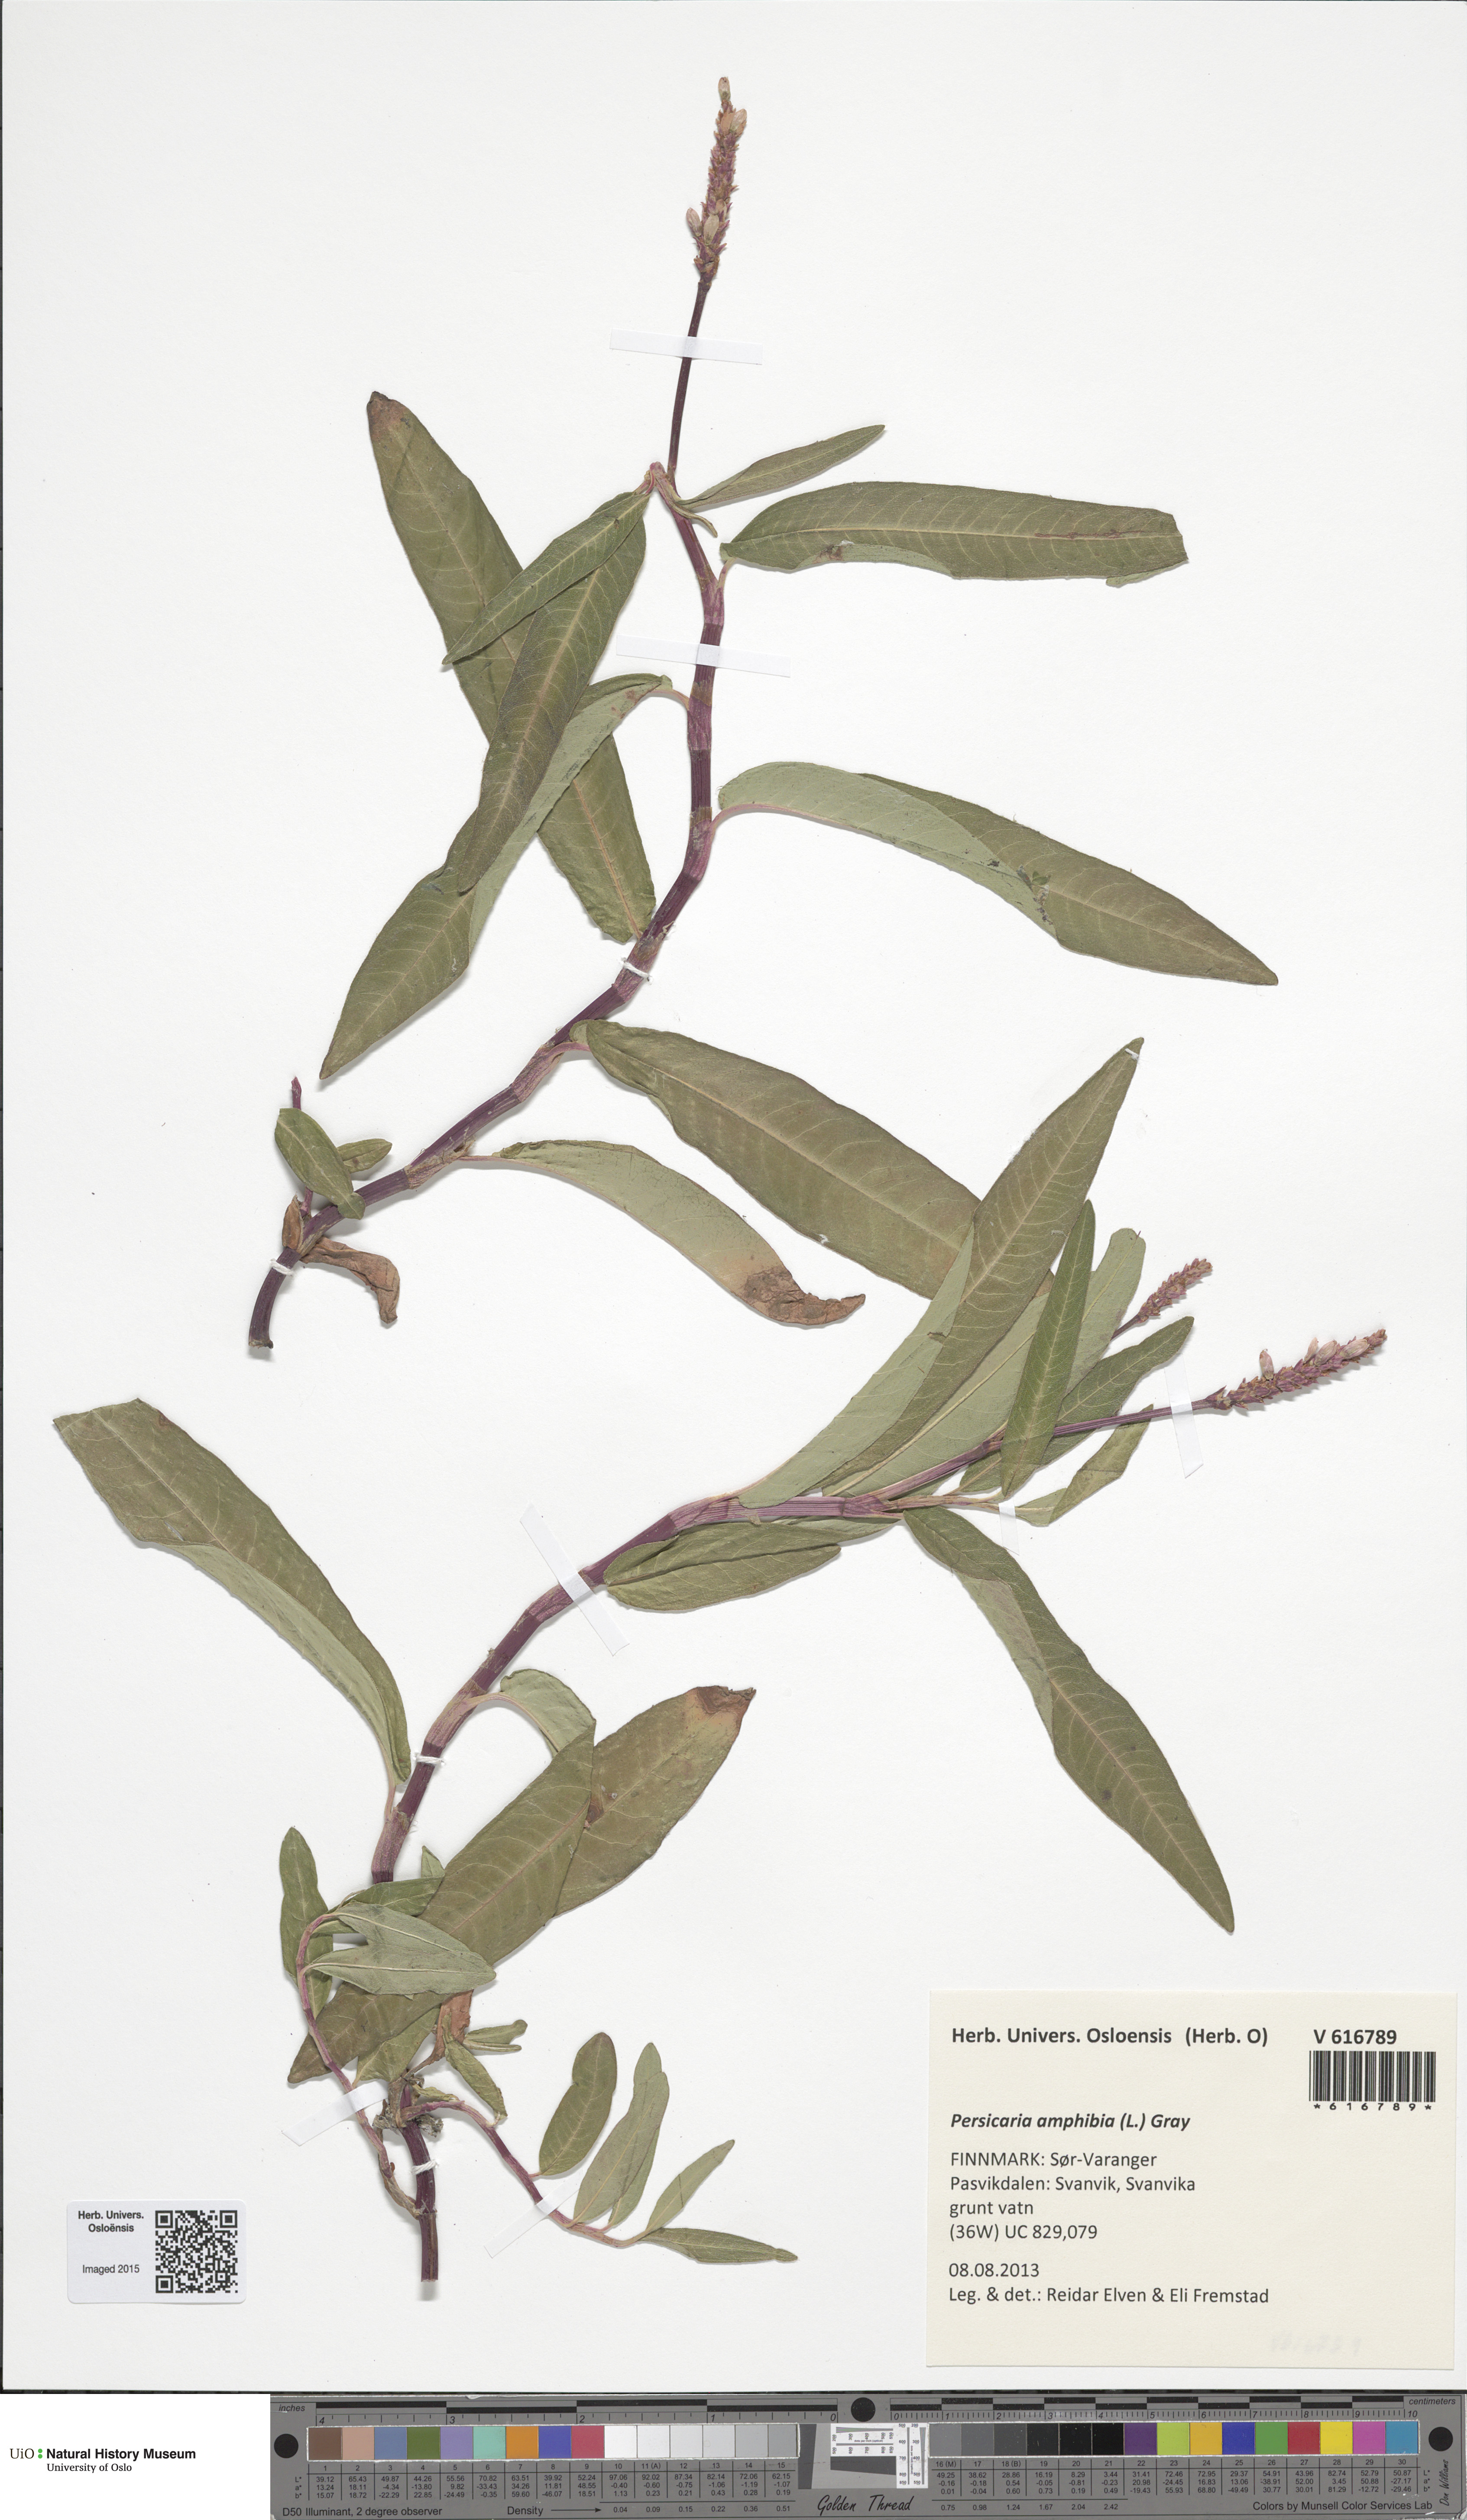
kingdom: Plantae
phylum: Tracheophyta
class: Magnoliopsida
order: Caryophyllales
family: Polygonaceae
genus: Persicaria
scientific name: Persicaria amphibia
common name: Amphibious bistort
